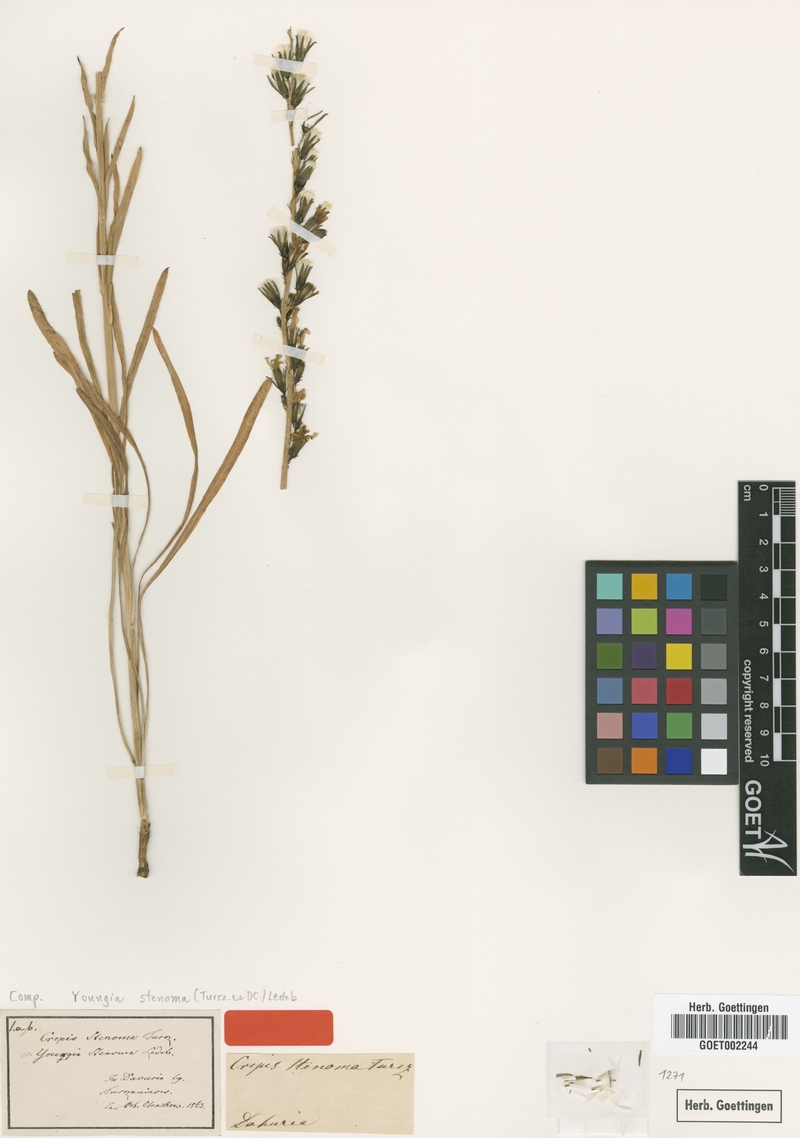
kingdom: Plantae
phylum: Tracheophyta
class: Magnoliopsida
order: Asterales
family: Asteraceae
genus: Sonchella
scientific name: Sonchella stenoma
